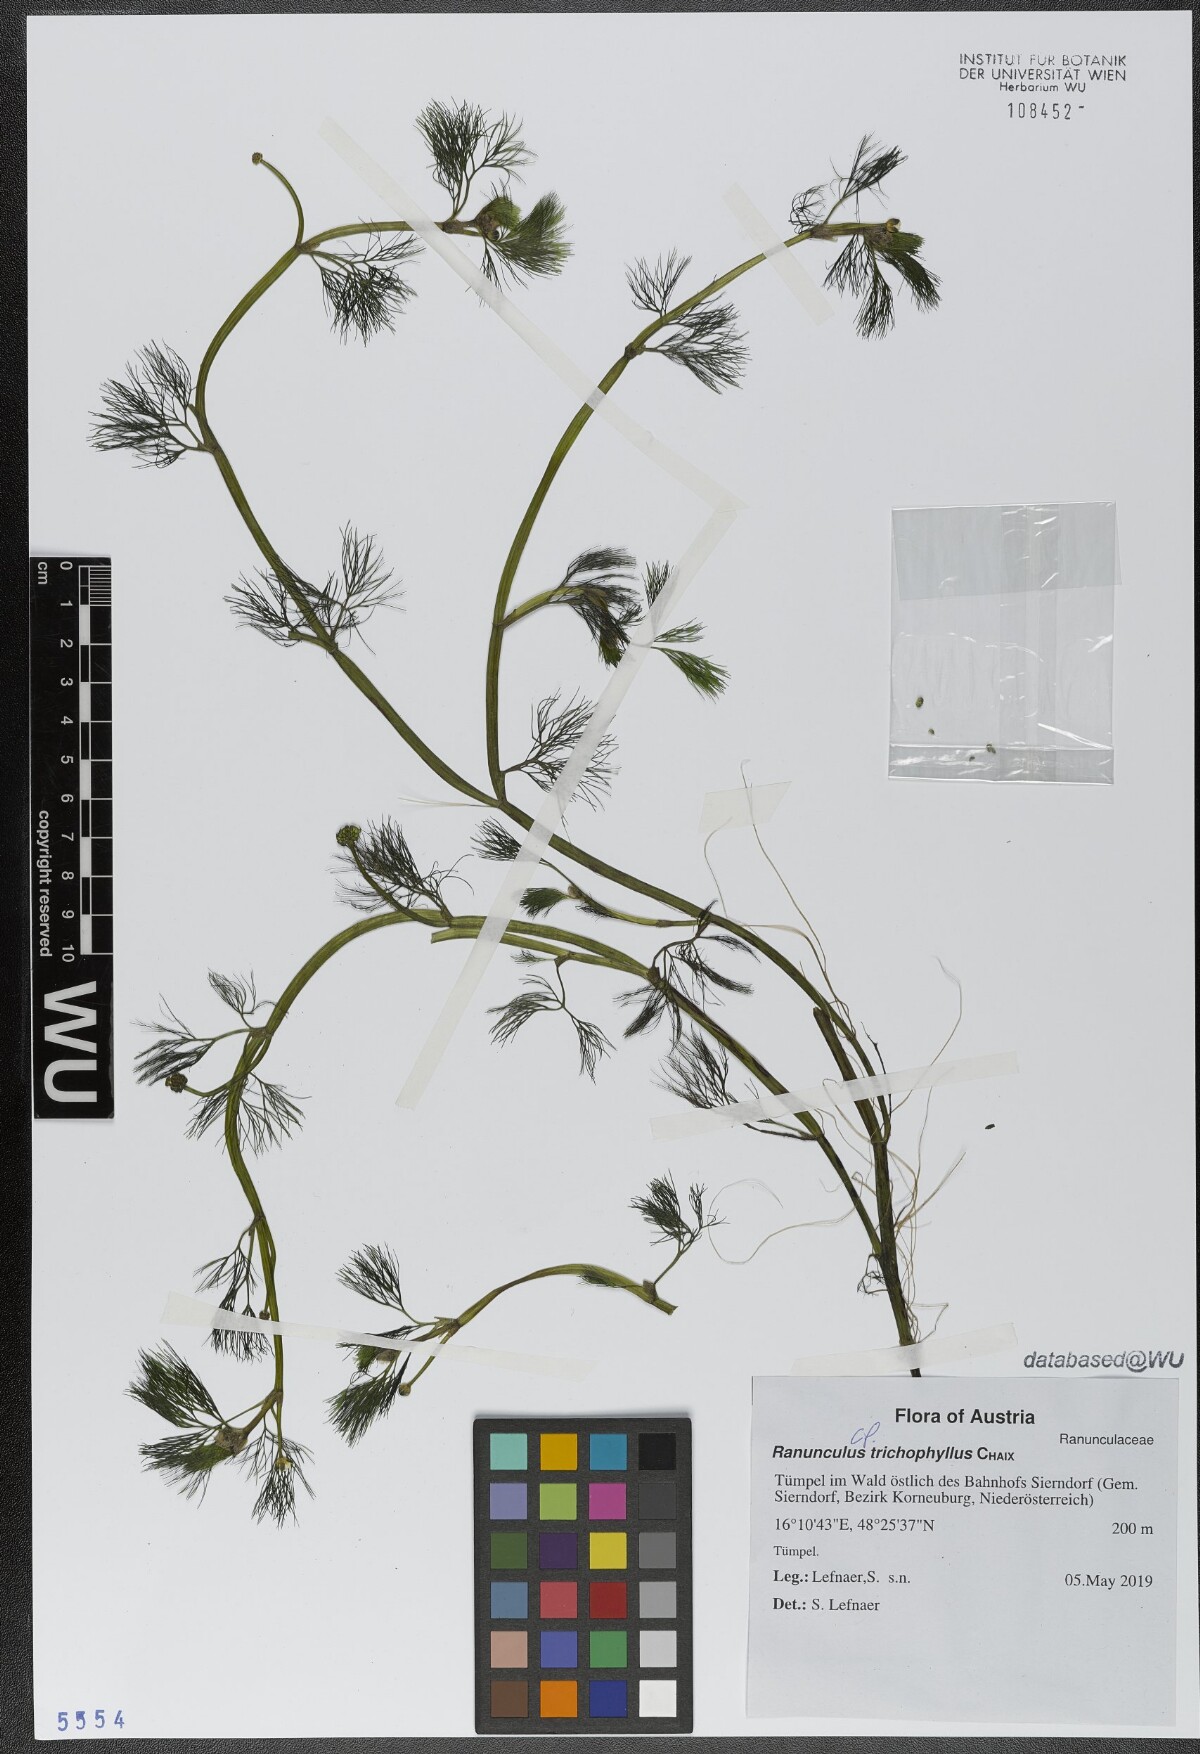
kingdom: Plantae
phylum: Tracheophyta
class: Magnoliopsida
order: Ranunculales
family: Ranunculaceae
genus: Ranunculus
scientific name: Ranunculus trichophyllus
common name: Thread-leaved water-crowfoot
